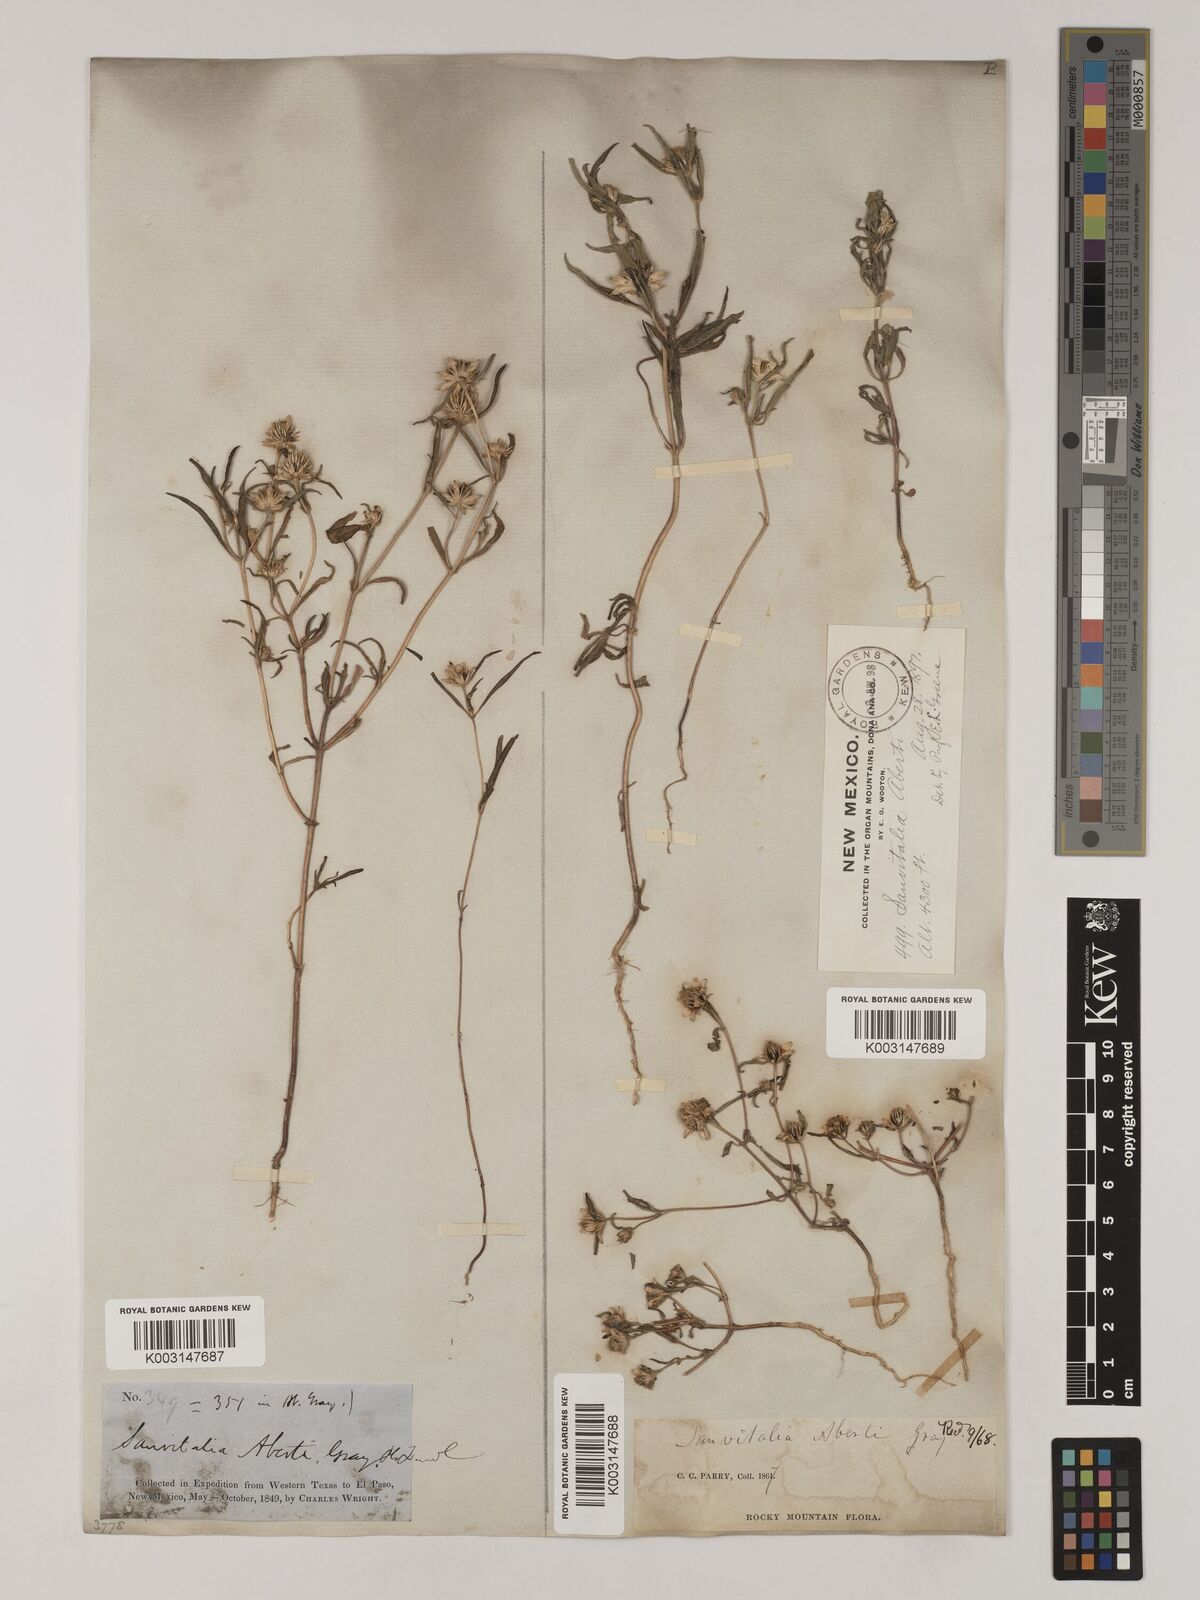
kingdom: Plantae
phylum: Tracheophyta
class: Magnoliopsida
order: Asterales
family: Asteraceae
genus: Sanvitalia
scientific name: Sanvitalia abertii
